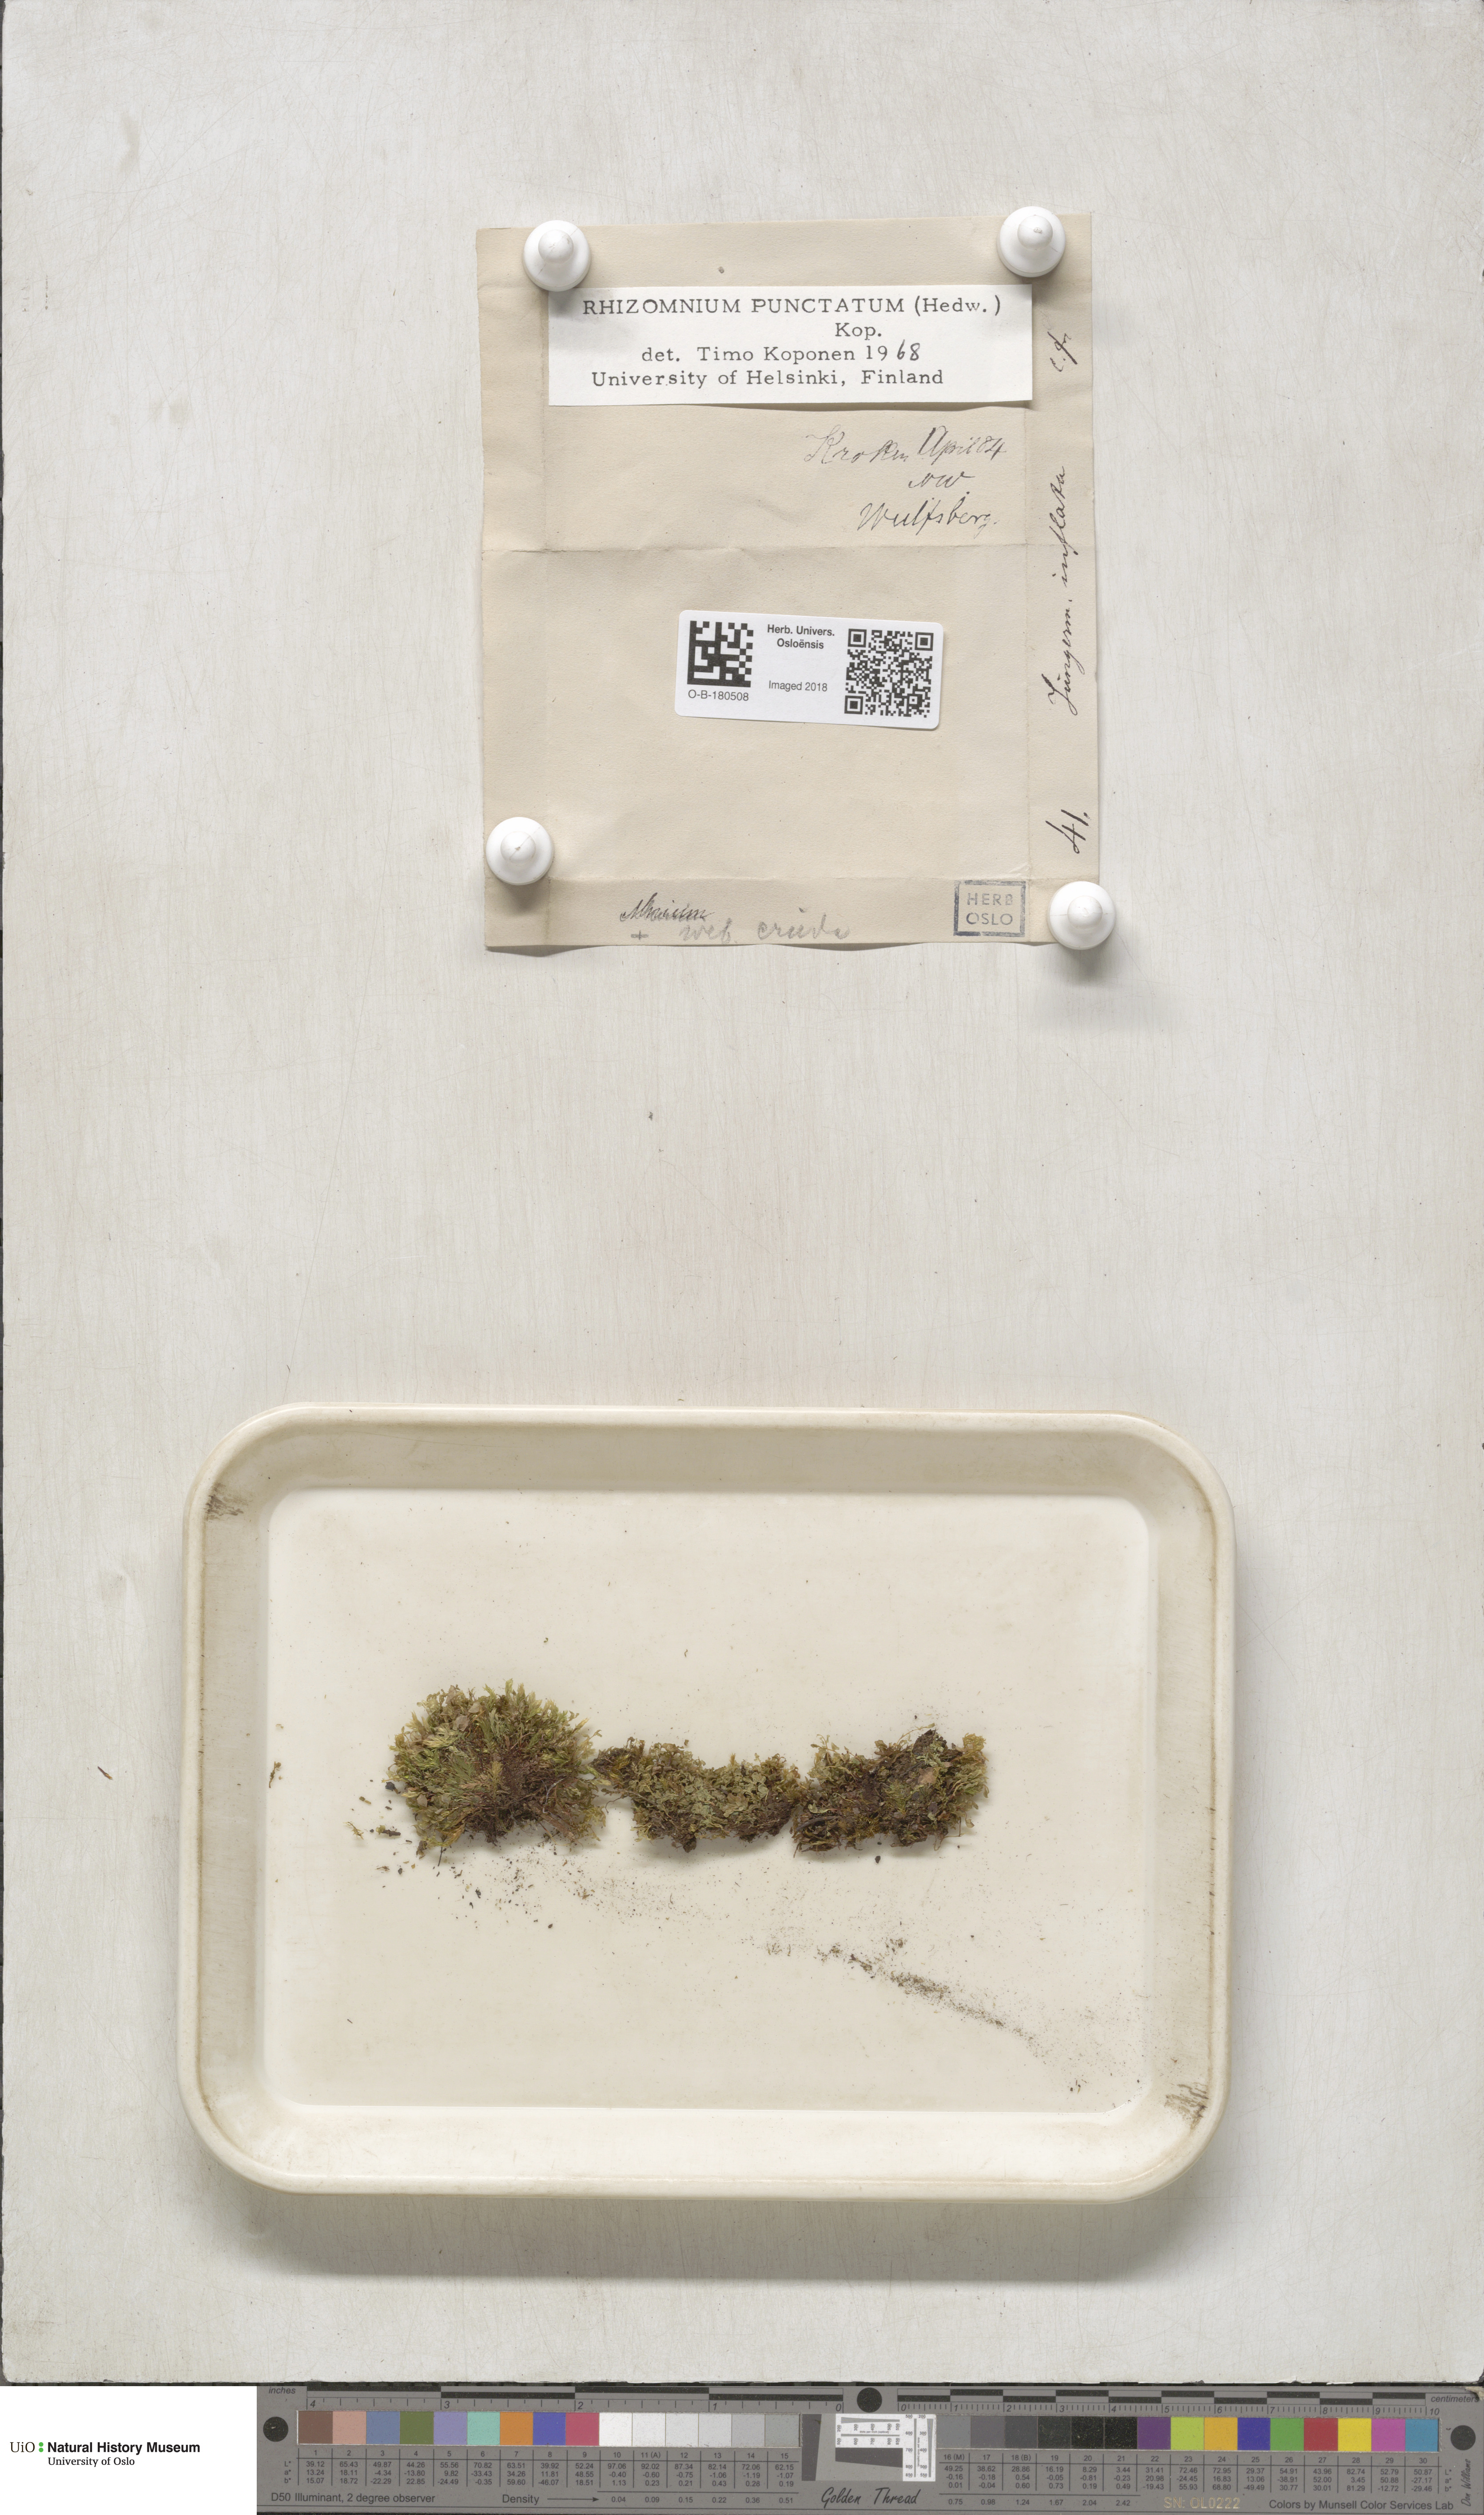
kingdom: Plantae
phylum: Bryophyta
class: Bryopsida
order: Bryales
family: Mniaceae
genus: Rhizomnium
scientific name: Rhizomnium punctatum
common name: Dotted leafy moss
